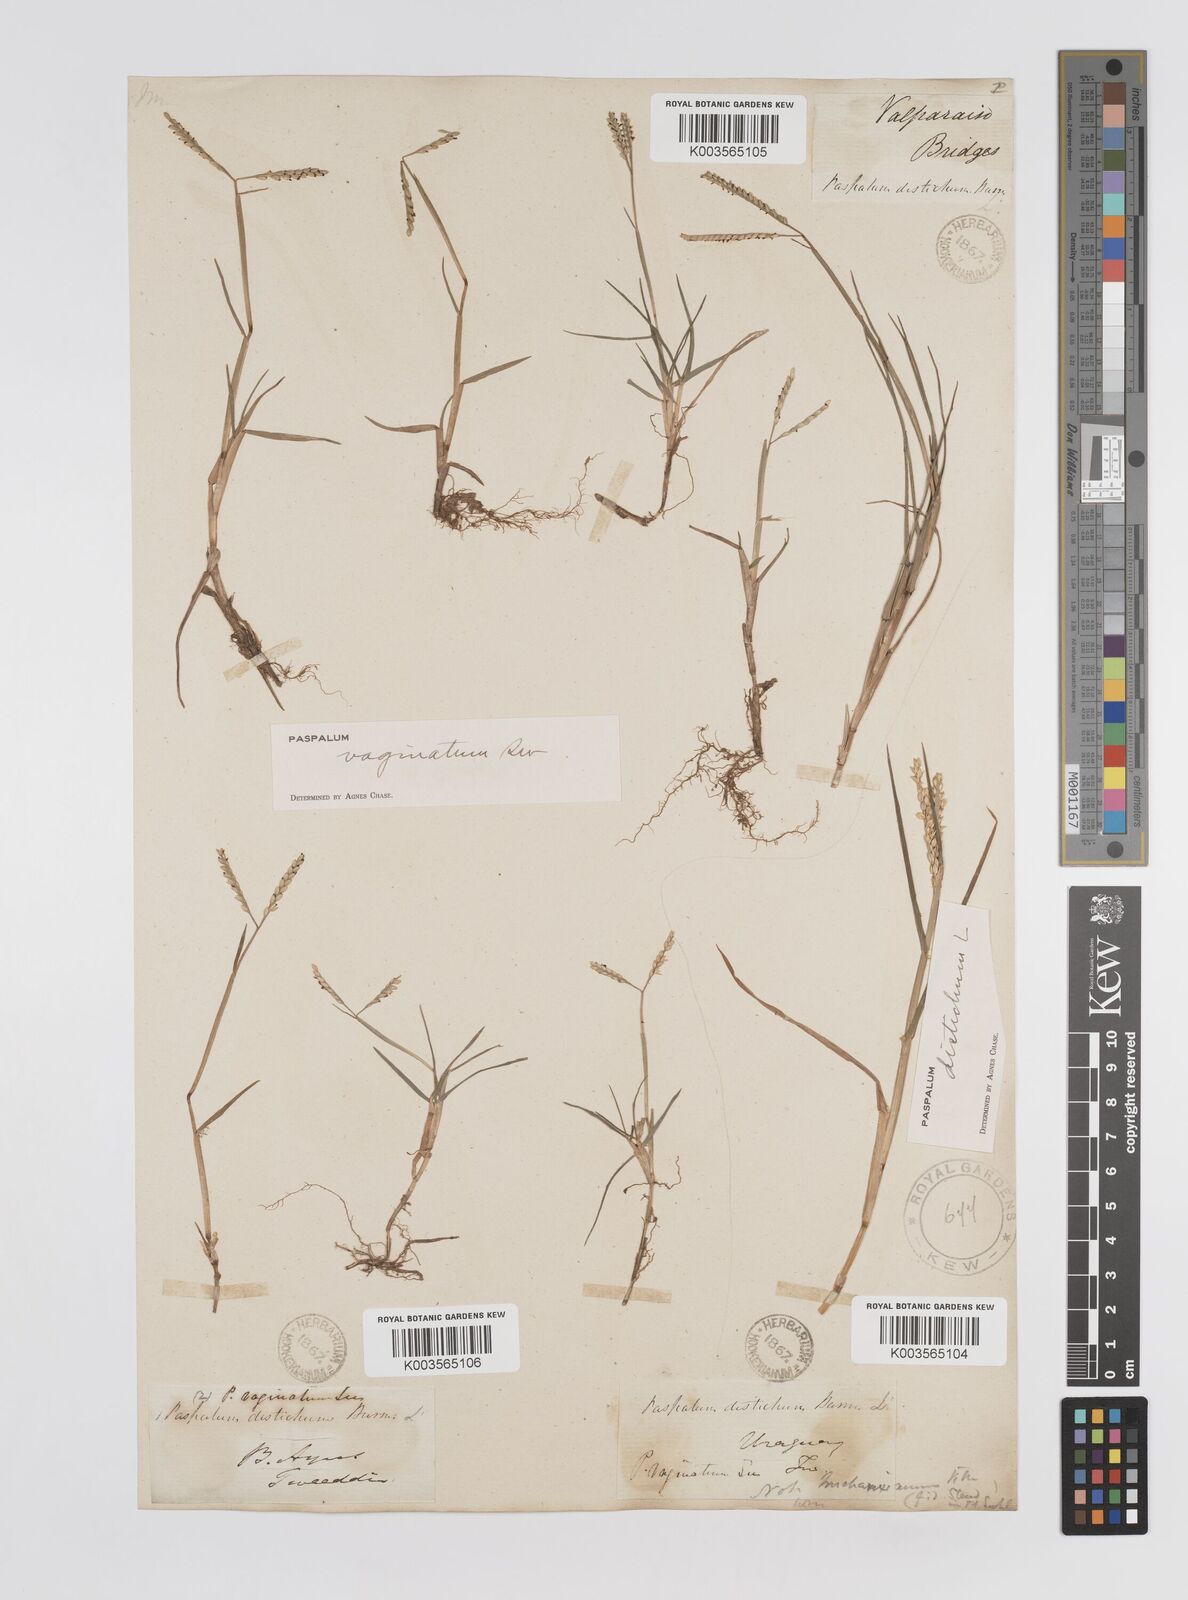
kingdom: Plantae
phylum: Tracheophyta
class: Liliopsida
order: Poales
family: Poaceae
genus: Paspalum
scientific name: Paspalum vaginatum
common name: Seashore paspalum
